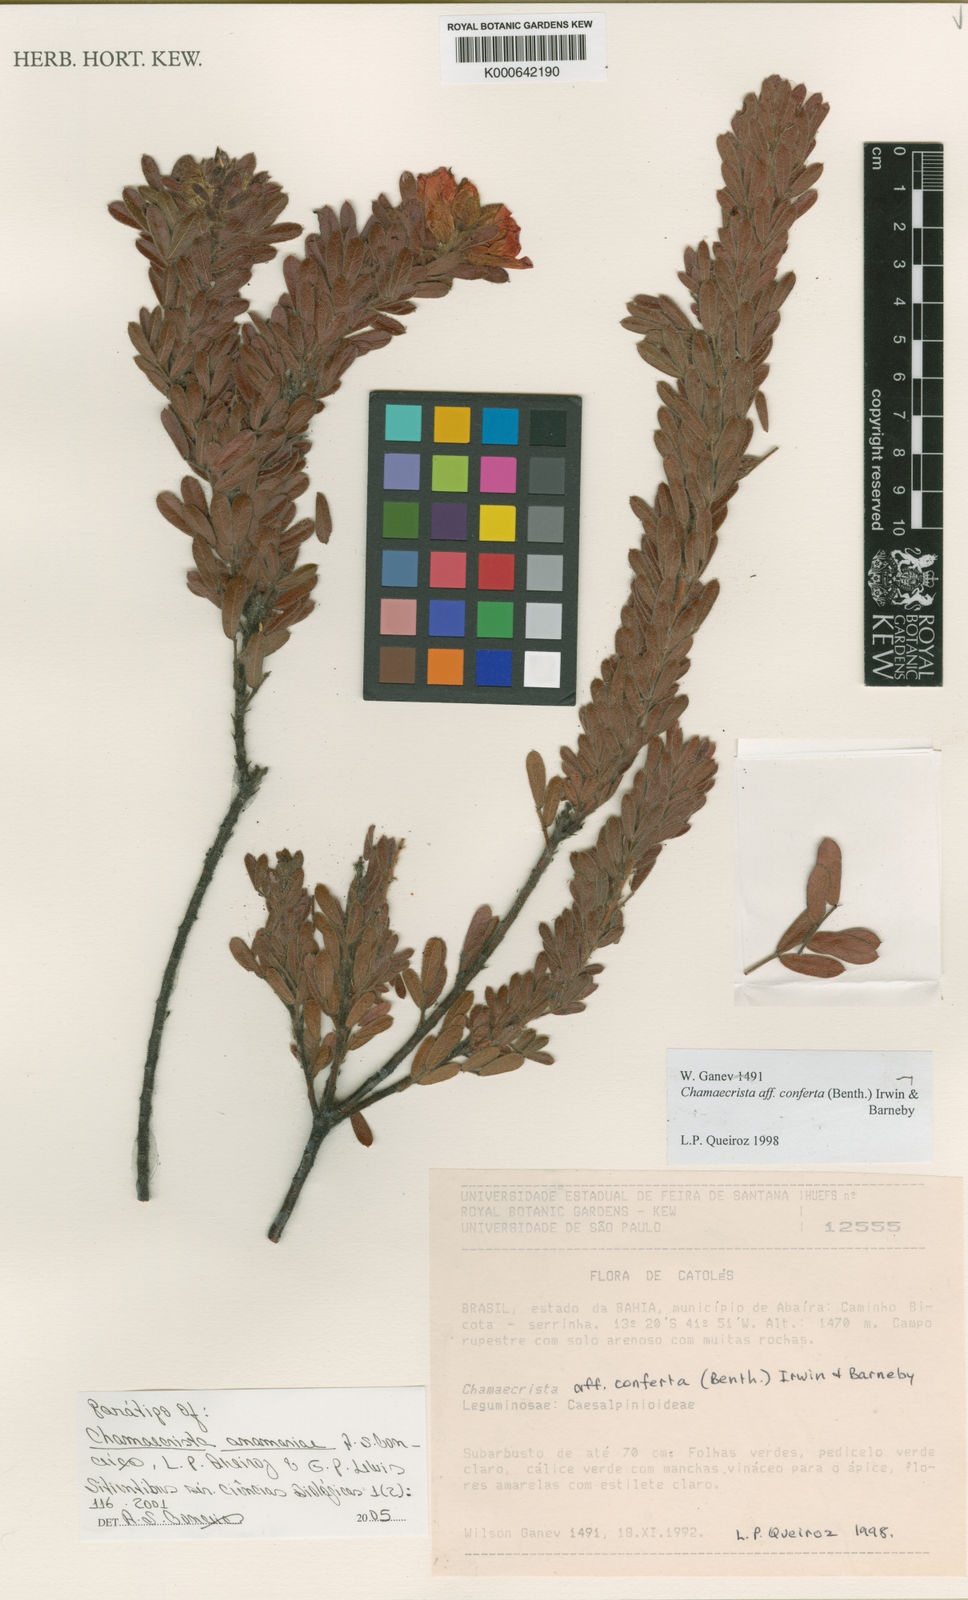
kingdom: Plantae
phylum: Tracheophyta
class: Magnoliopsida
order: Fabales
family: Fabaceae
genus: Chamaecrista
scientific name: Chamaecrista anamariae
